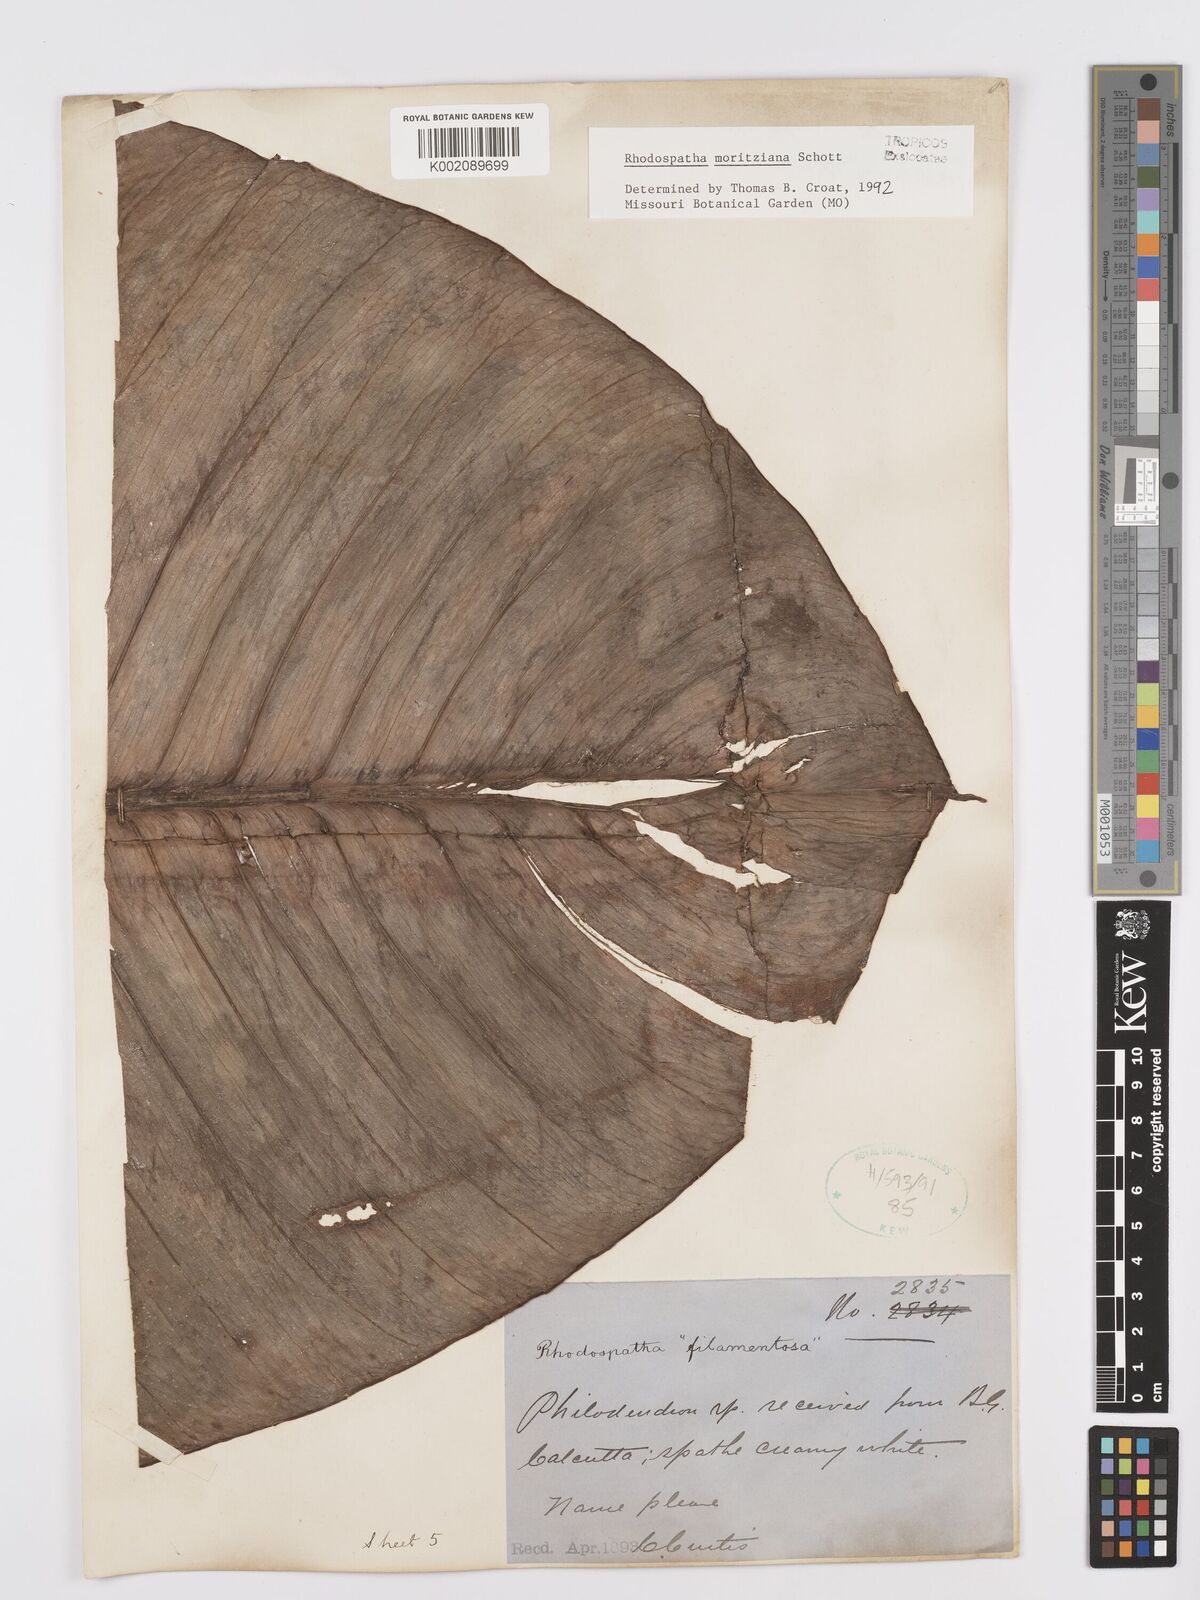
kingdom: Plantae
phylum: Tracheophyta
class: Liliopsida
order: Alismatales
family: Araceae
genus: Rhodospatha
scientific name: Rhodospatha moritziana
